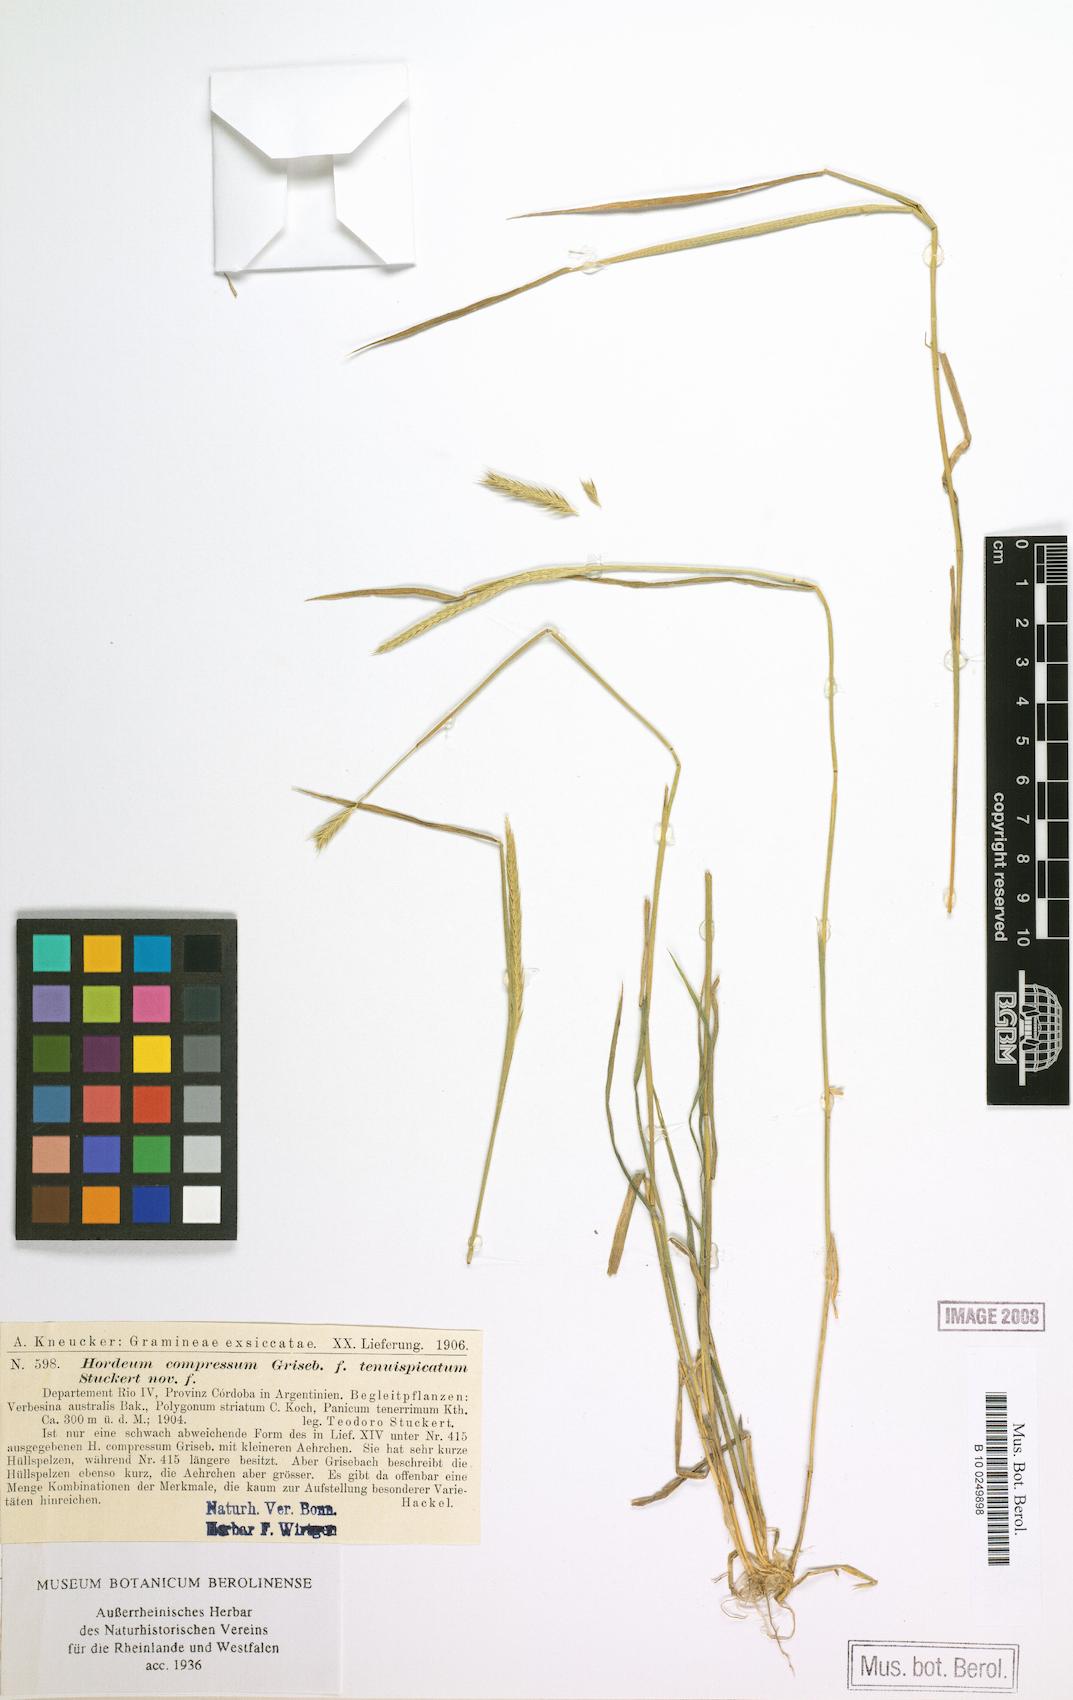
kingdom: Plantae
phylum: Tracheophyta
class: Liliopsida
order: Poales
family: Poaceae
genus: Hordeum
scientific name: Hordeum stenostachys
